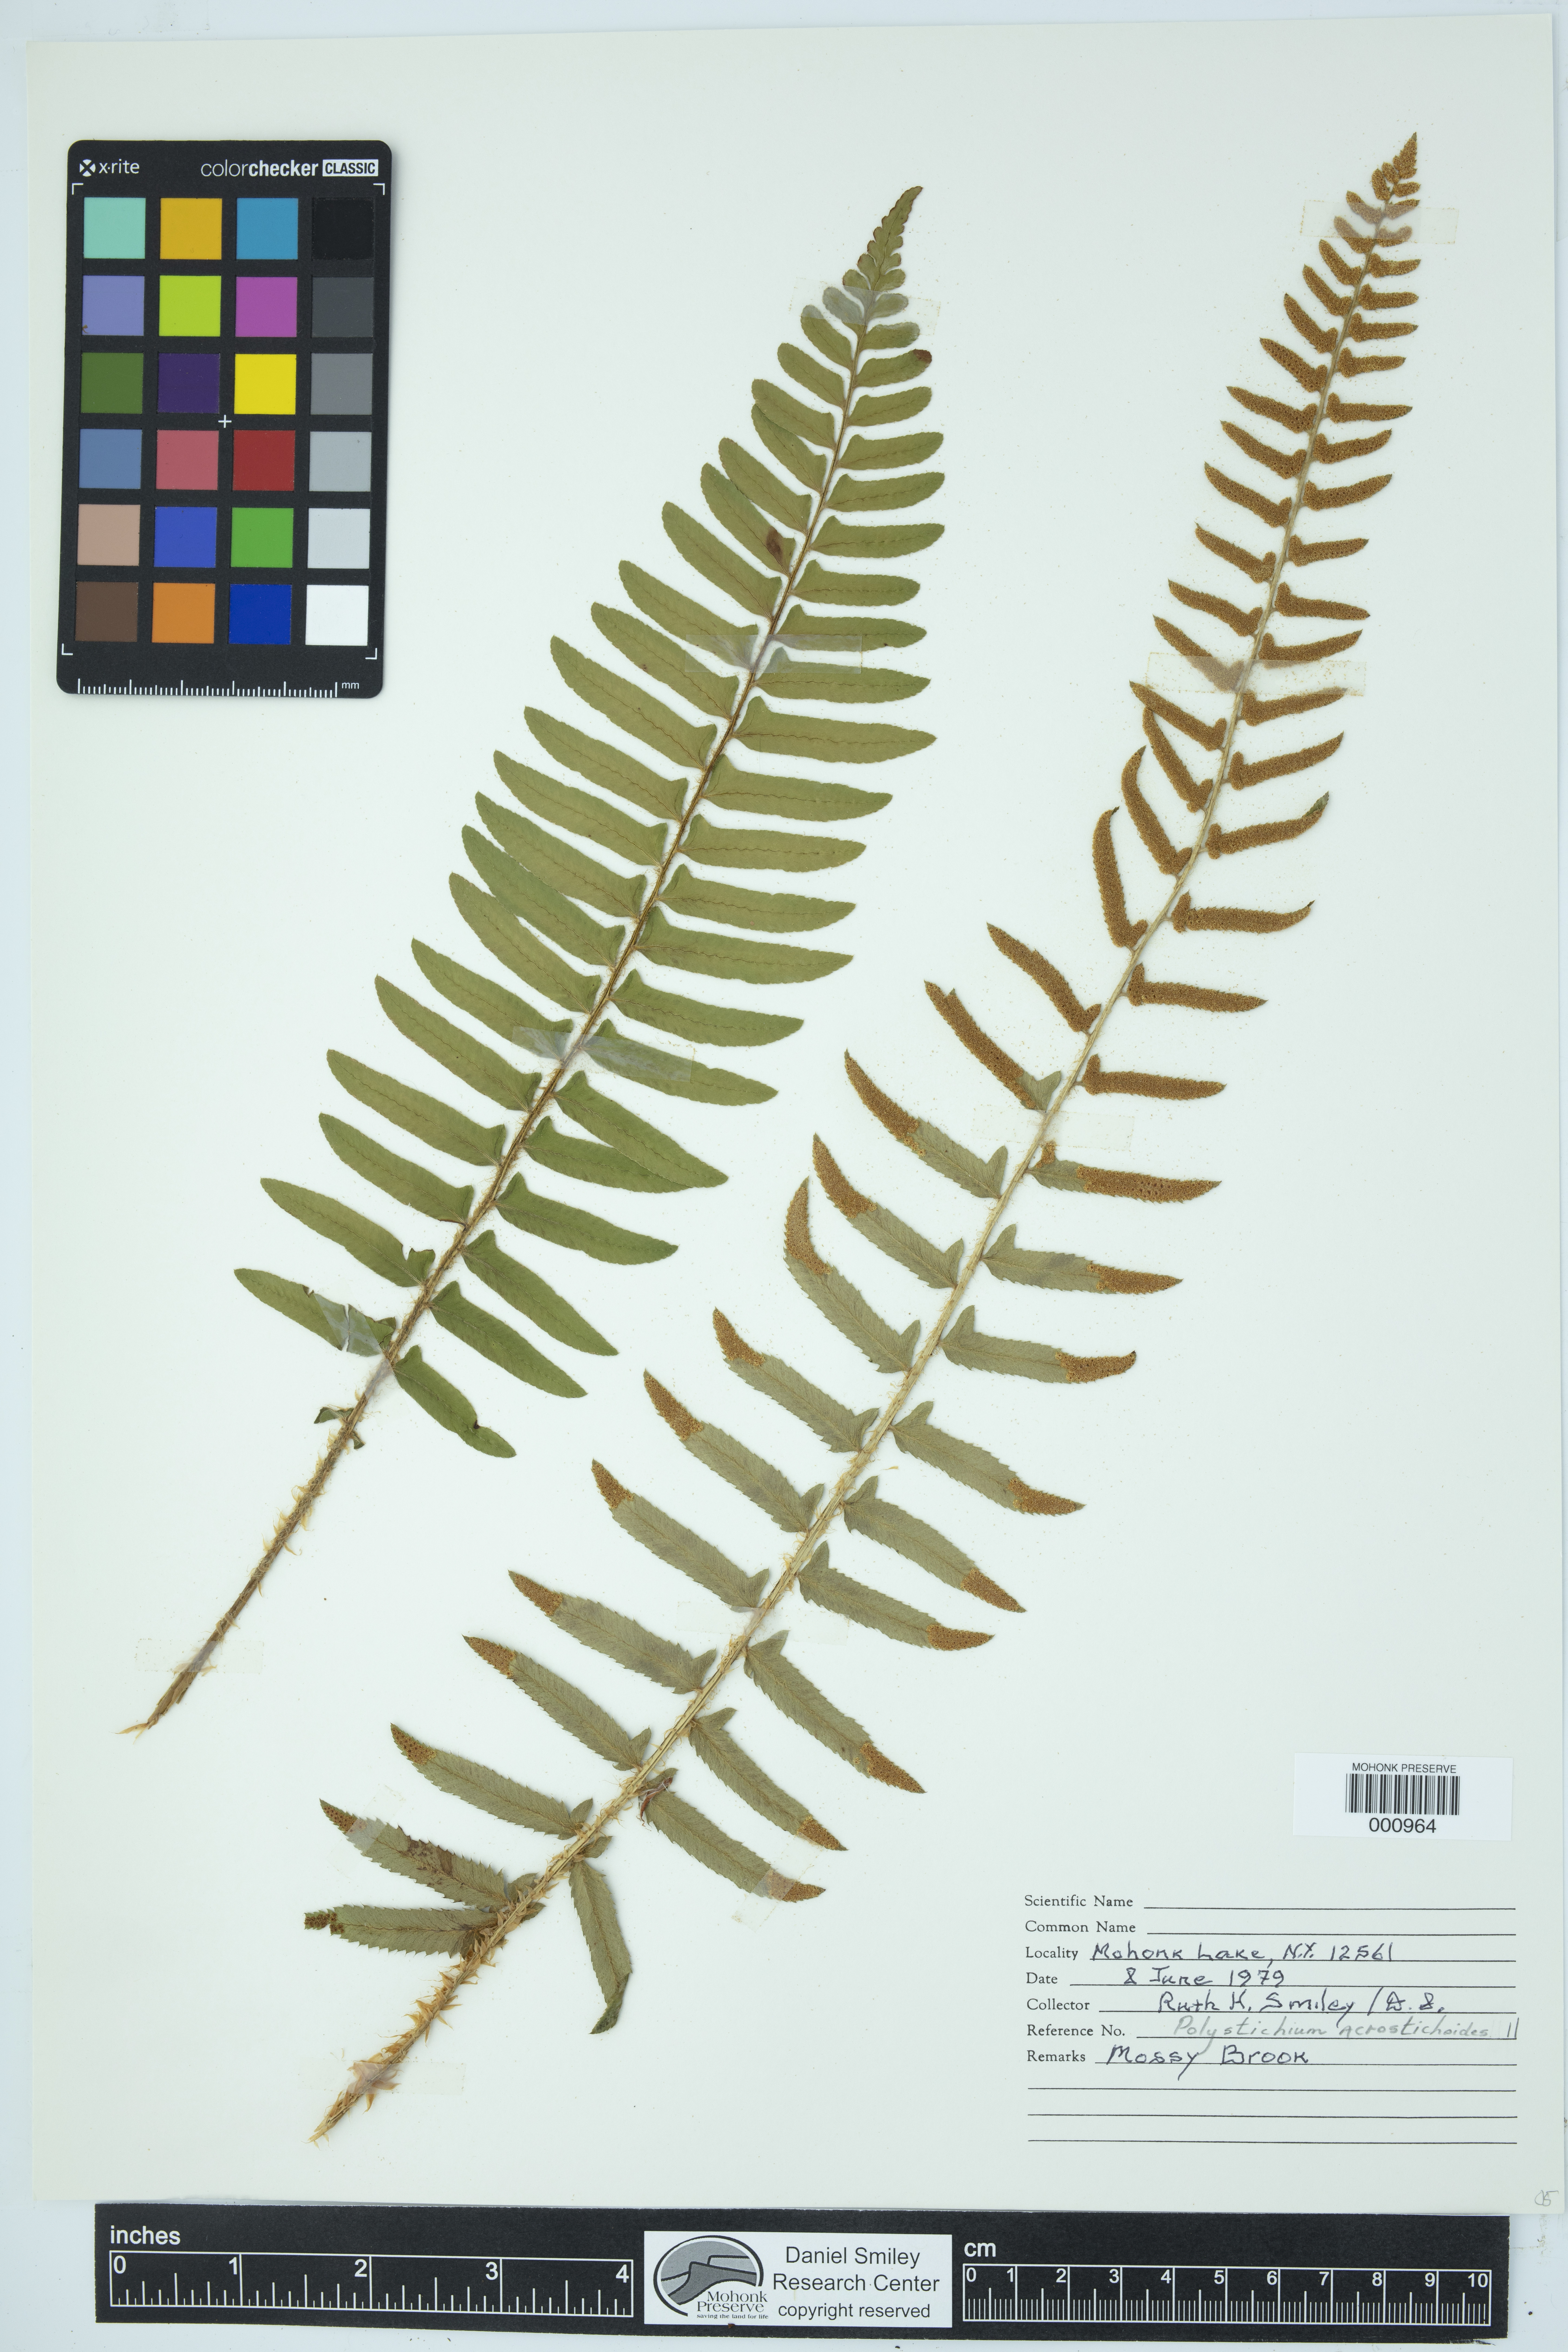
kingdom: Plantae
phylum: Tracheophyta
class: Polypodiopsida
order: Polypodiales
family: Dryopteridaceae
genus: Polystichum
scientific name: Polystichum acrostichoides
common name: Christmas fern
